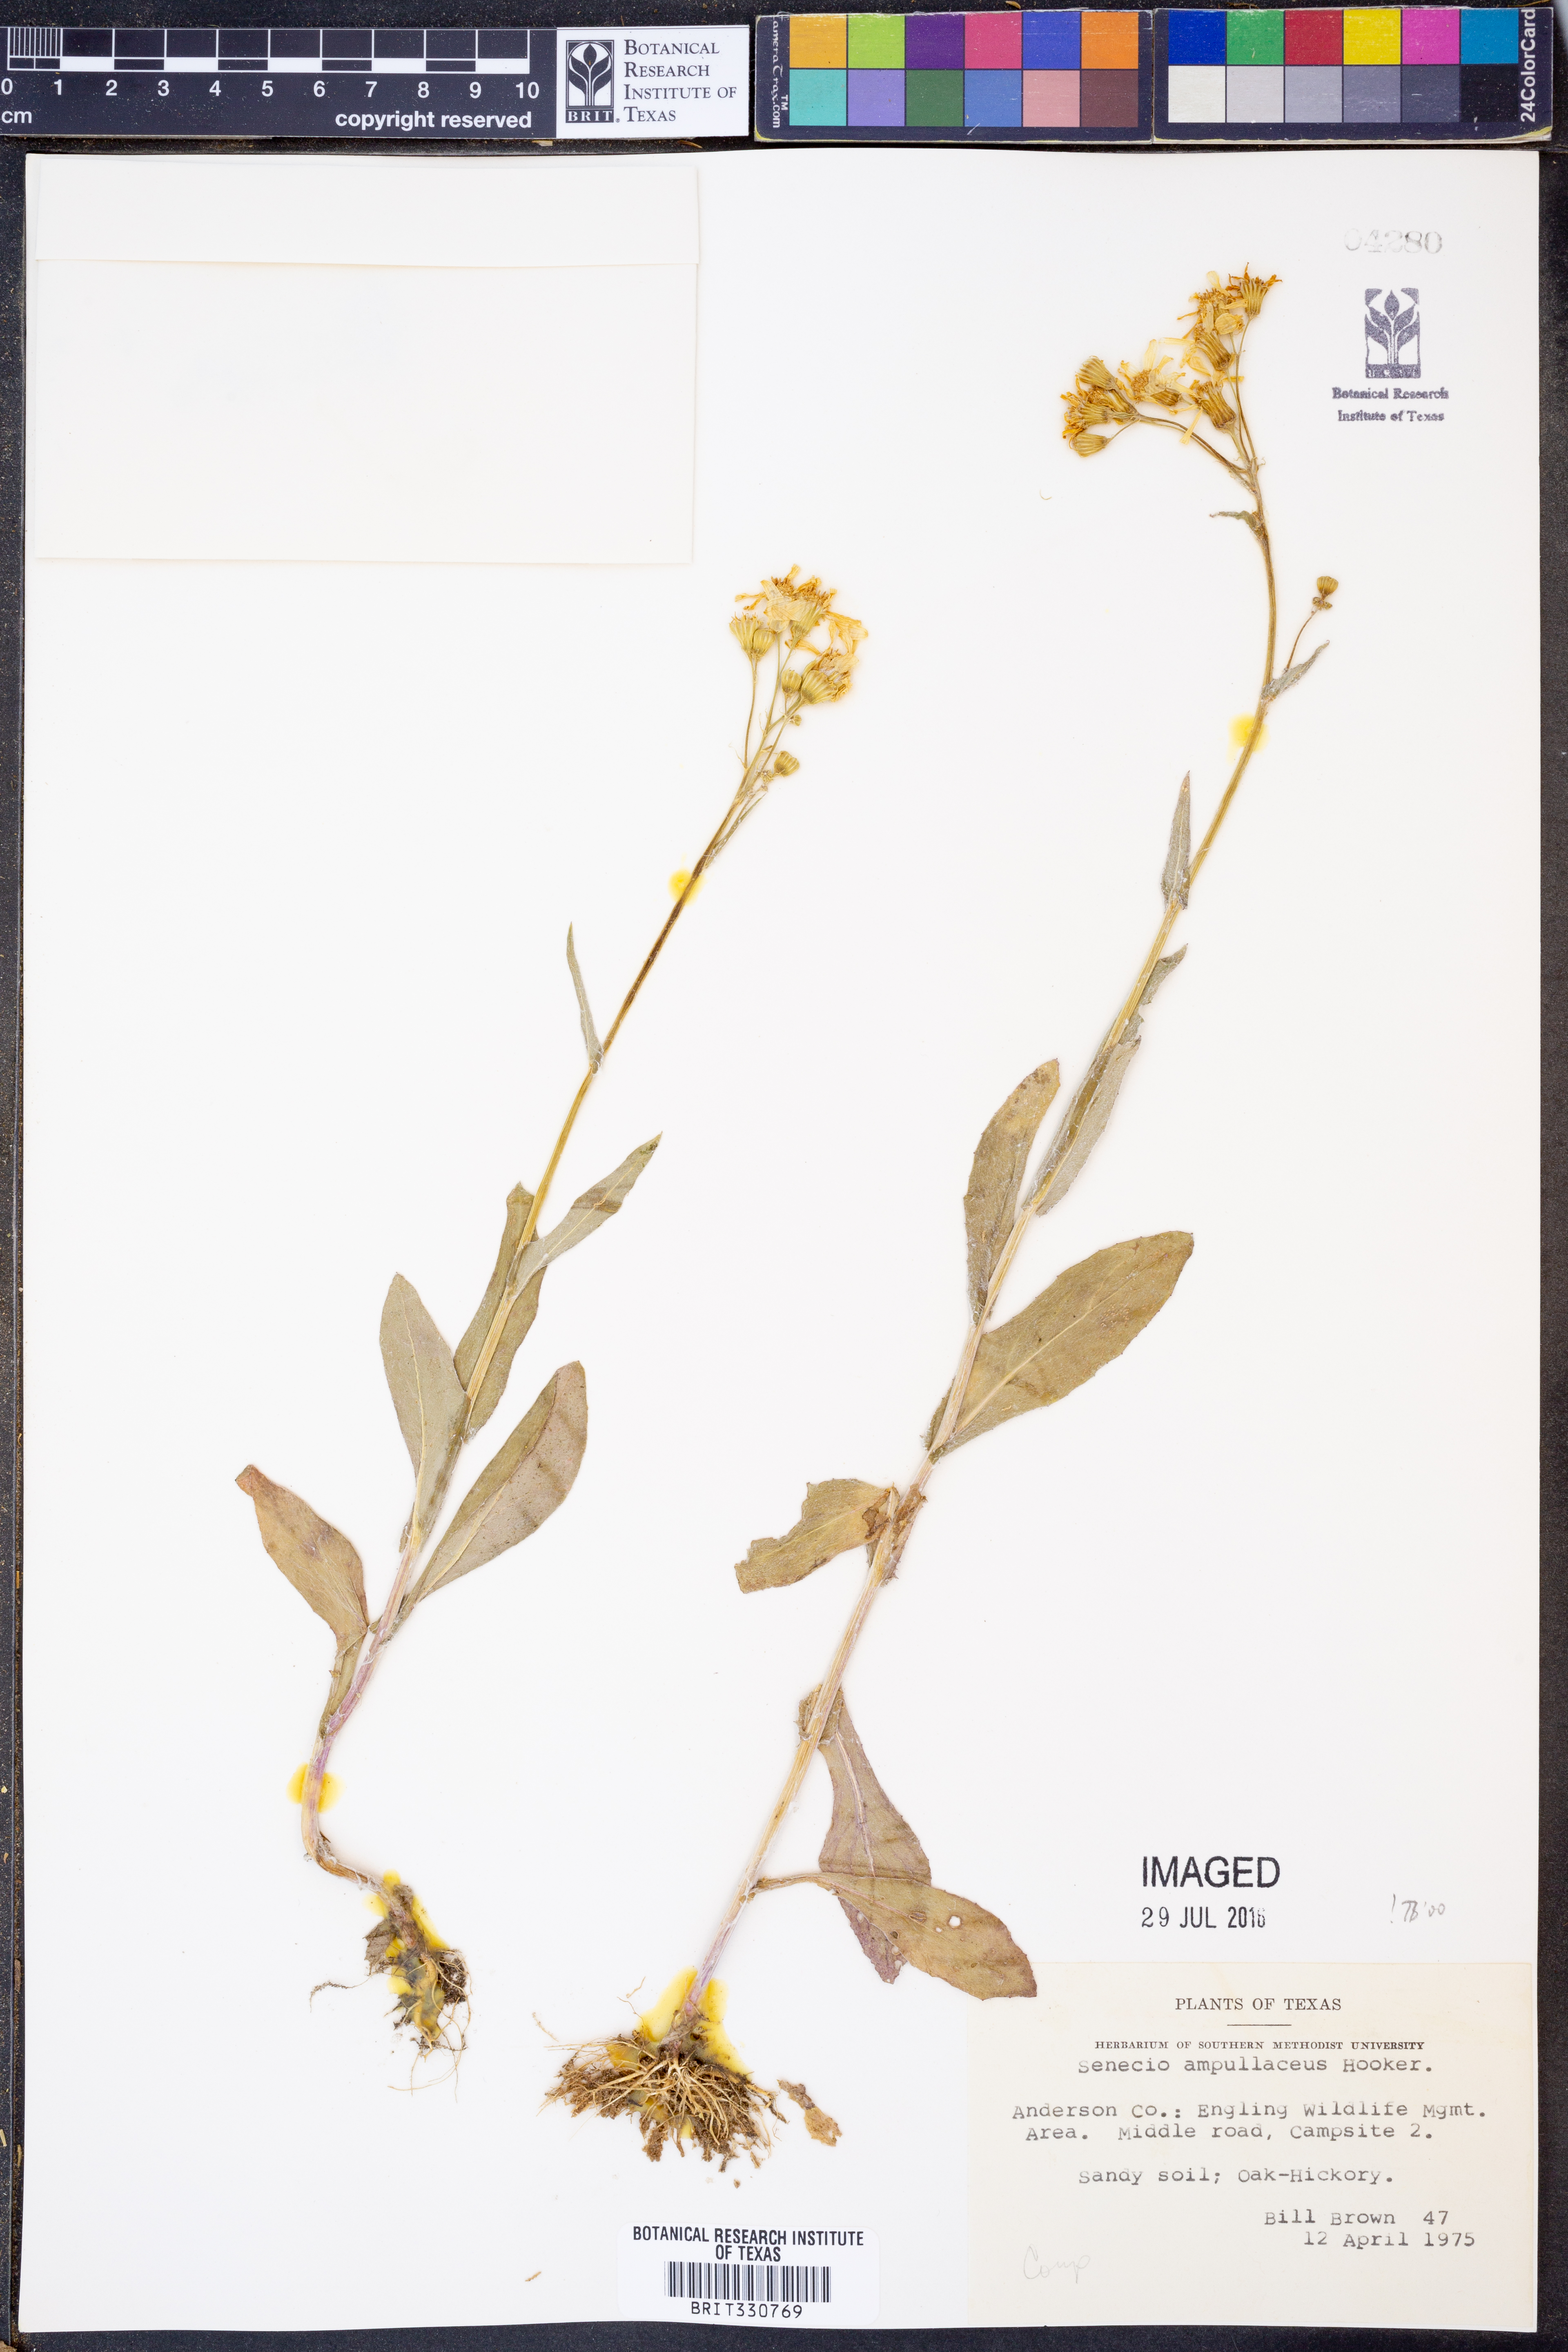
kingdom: Plantae
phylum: Tracheophyta
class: Magnoliopsida
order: Asterales
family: Asteraceae
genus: Senecio
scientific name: Senecio ampullaceus
